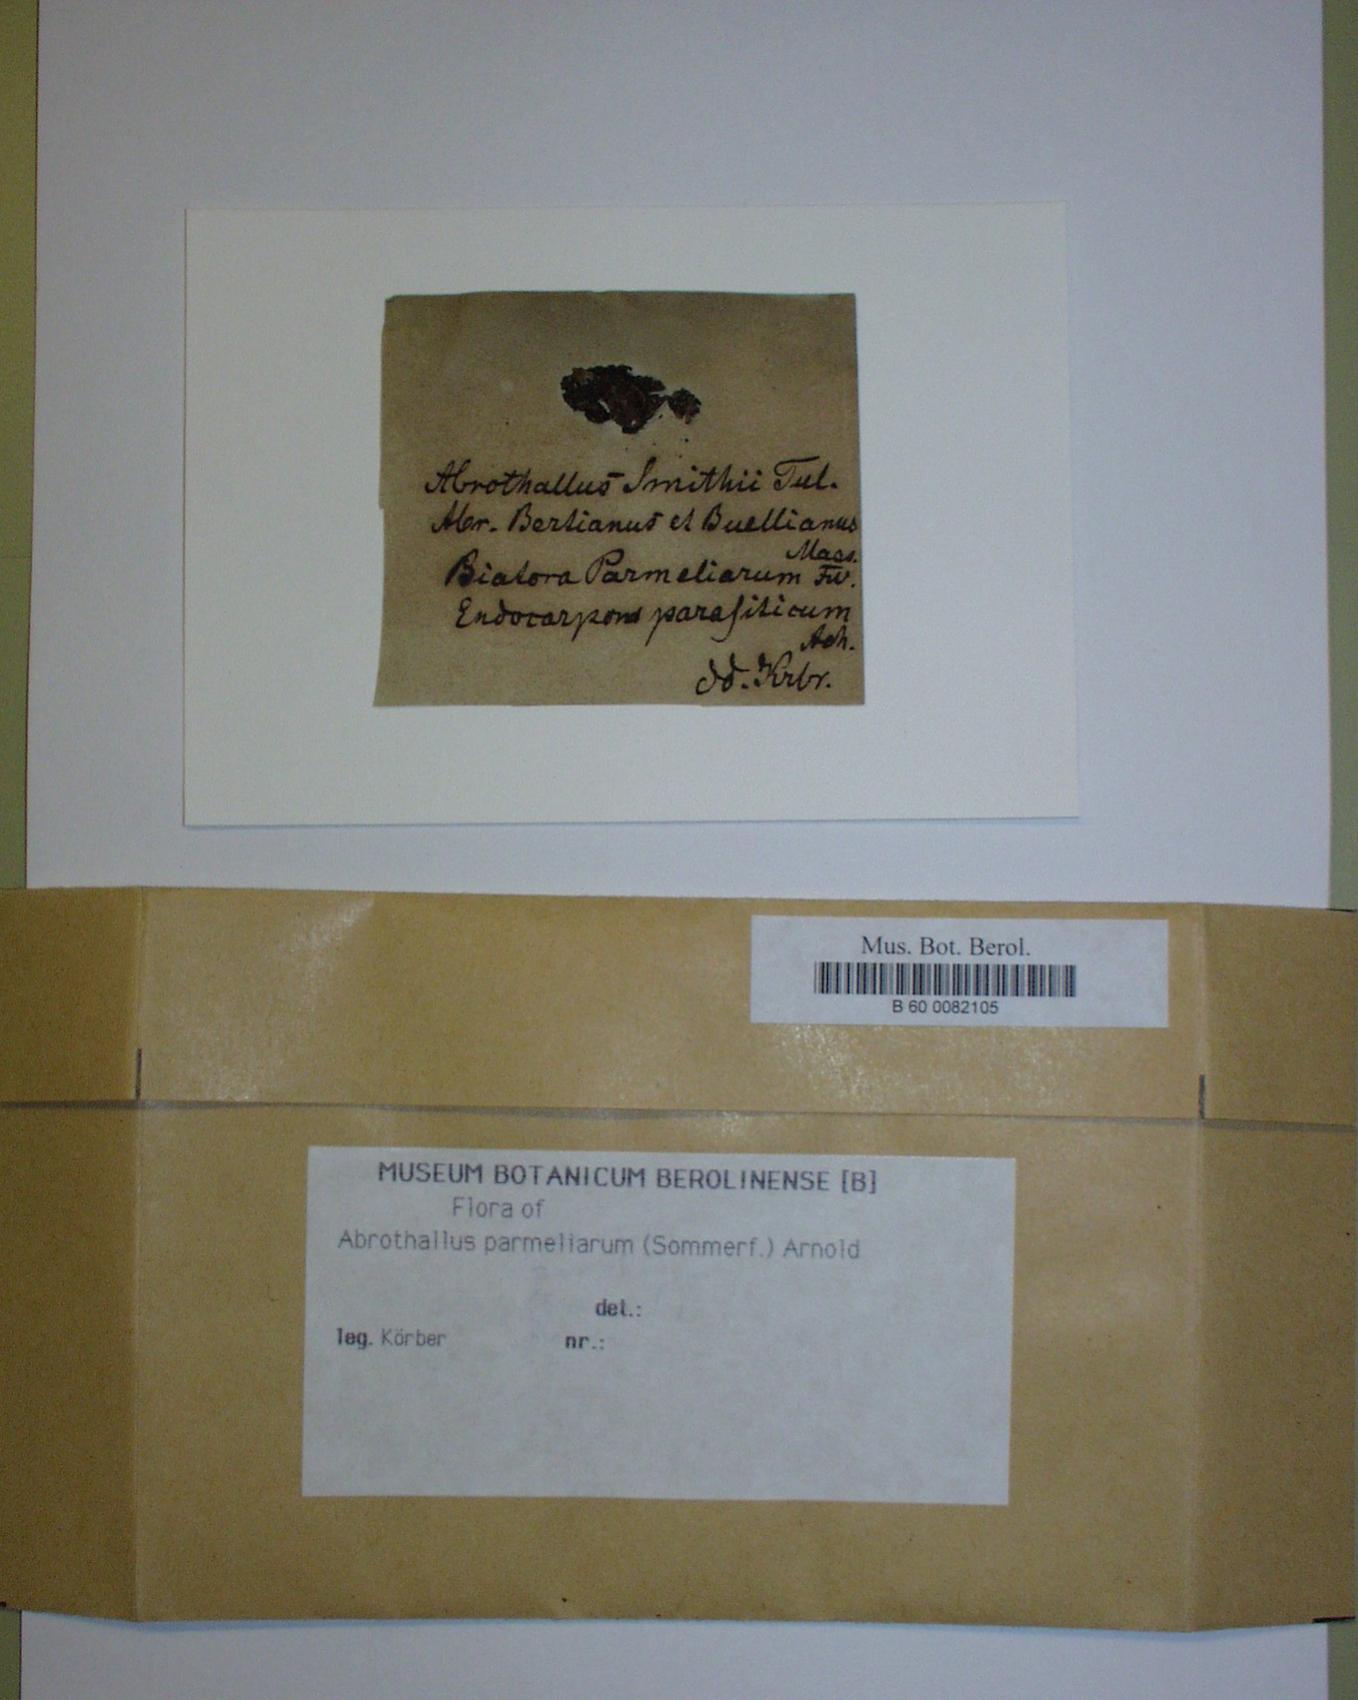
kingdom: Fungi
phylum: Ascomycota
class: Dothideomycetes
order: Abrothallales
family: Abrothallaceae
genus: Abrothallus
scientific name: Abrothallus parmeliarum
